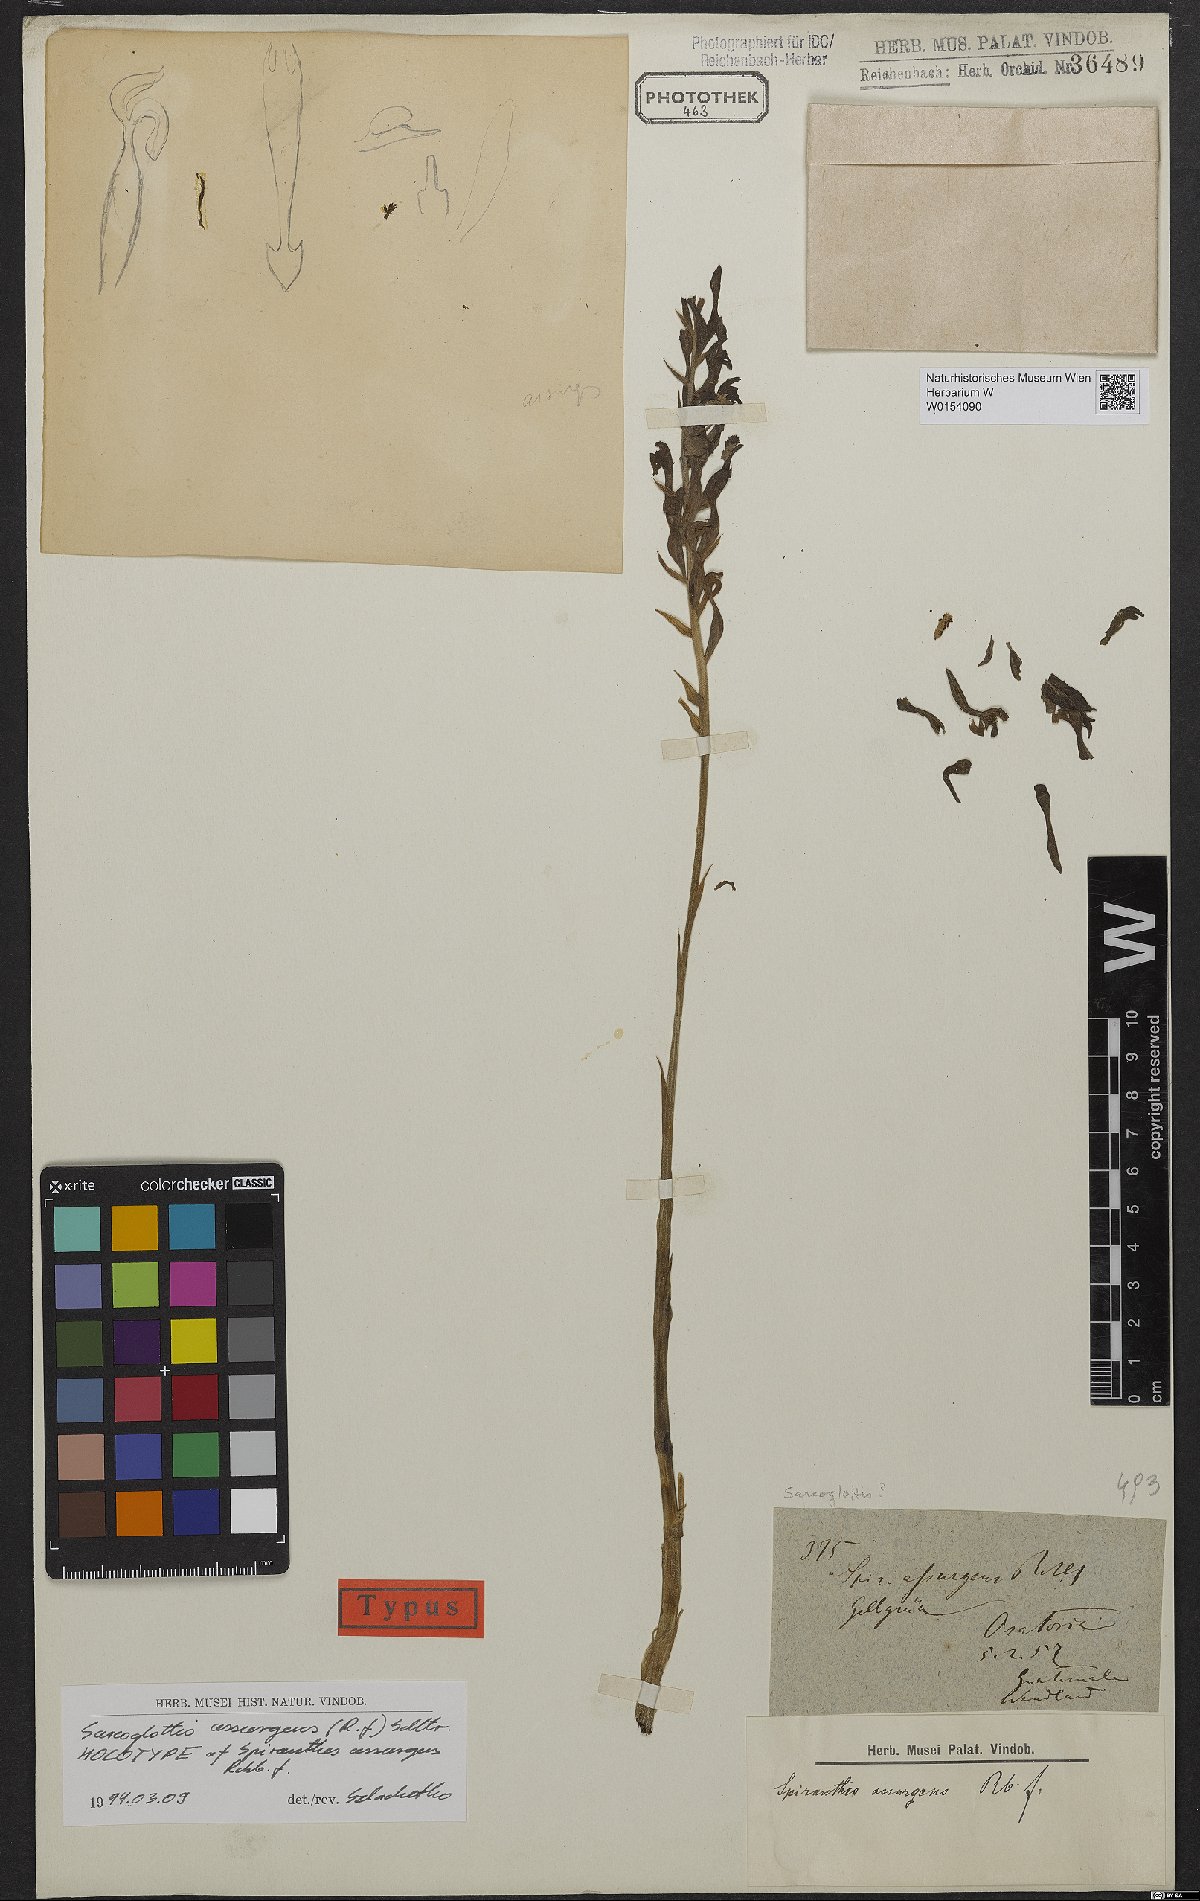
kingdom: Plantae
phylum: Tracheophyta
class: Liliopsida
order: Asparagales
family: Orchidaceae
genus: Sarcoglottis
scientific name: Sarcoglottis assurgens
